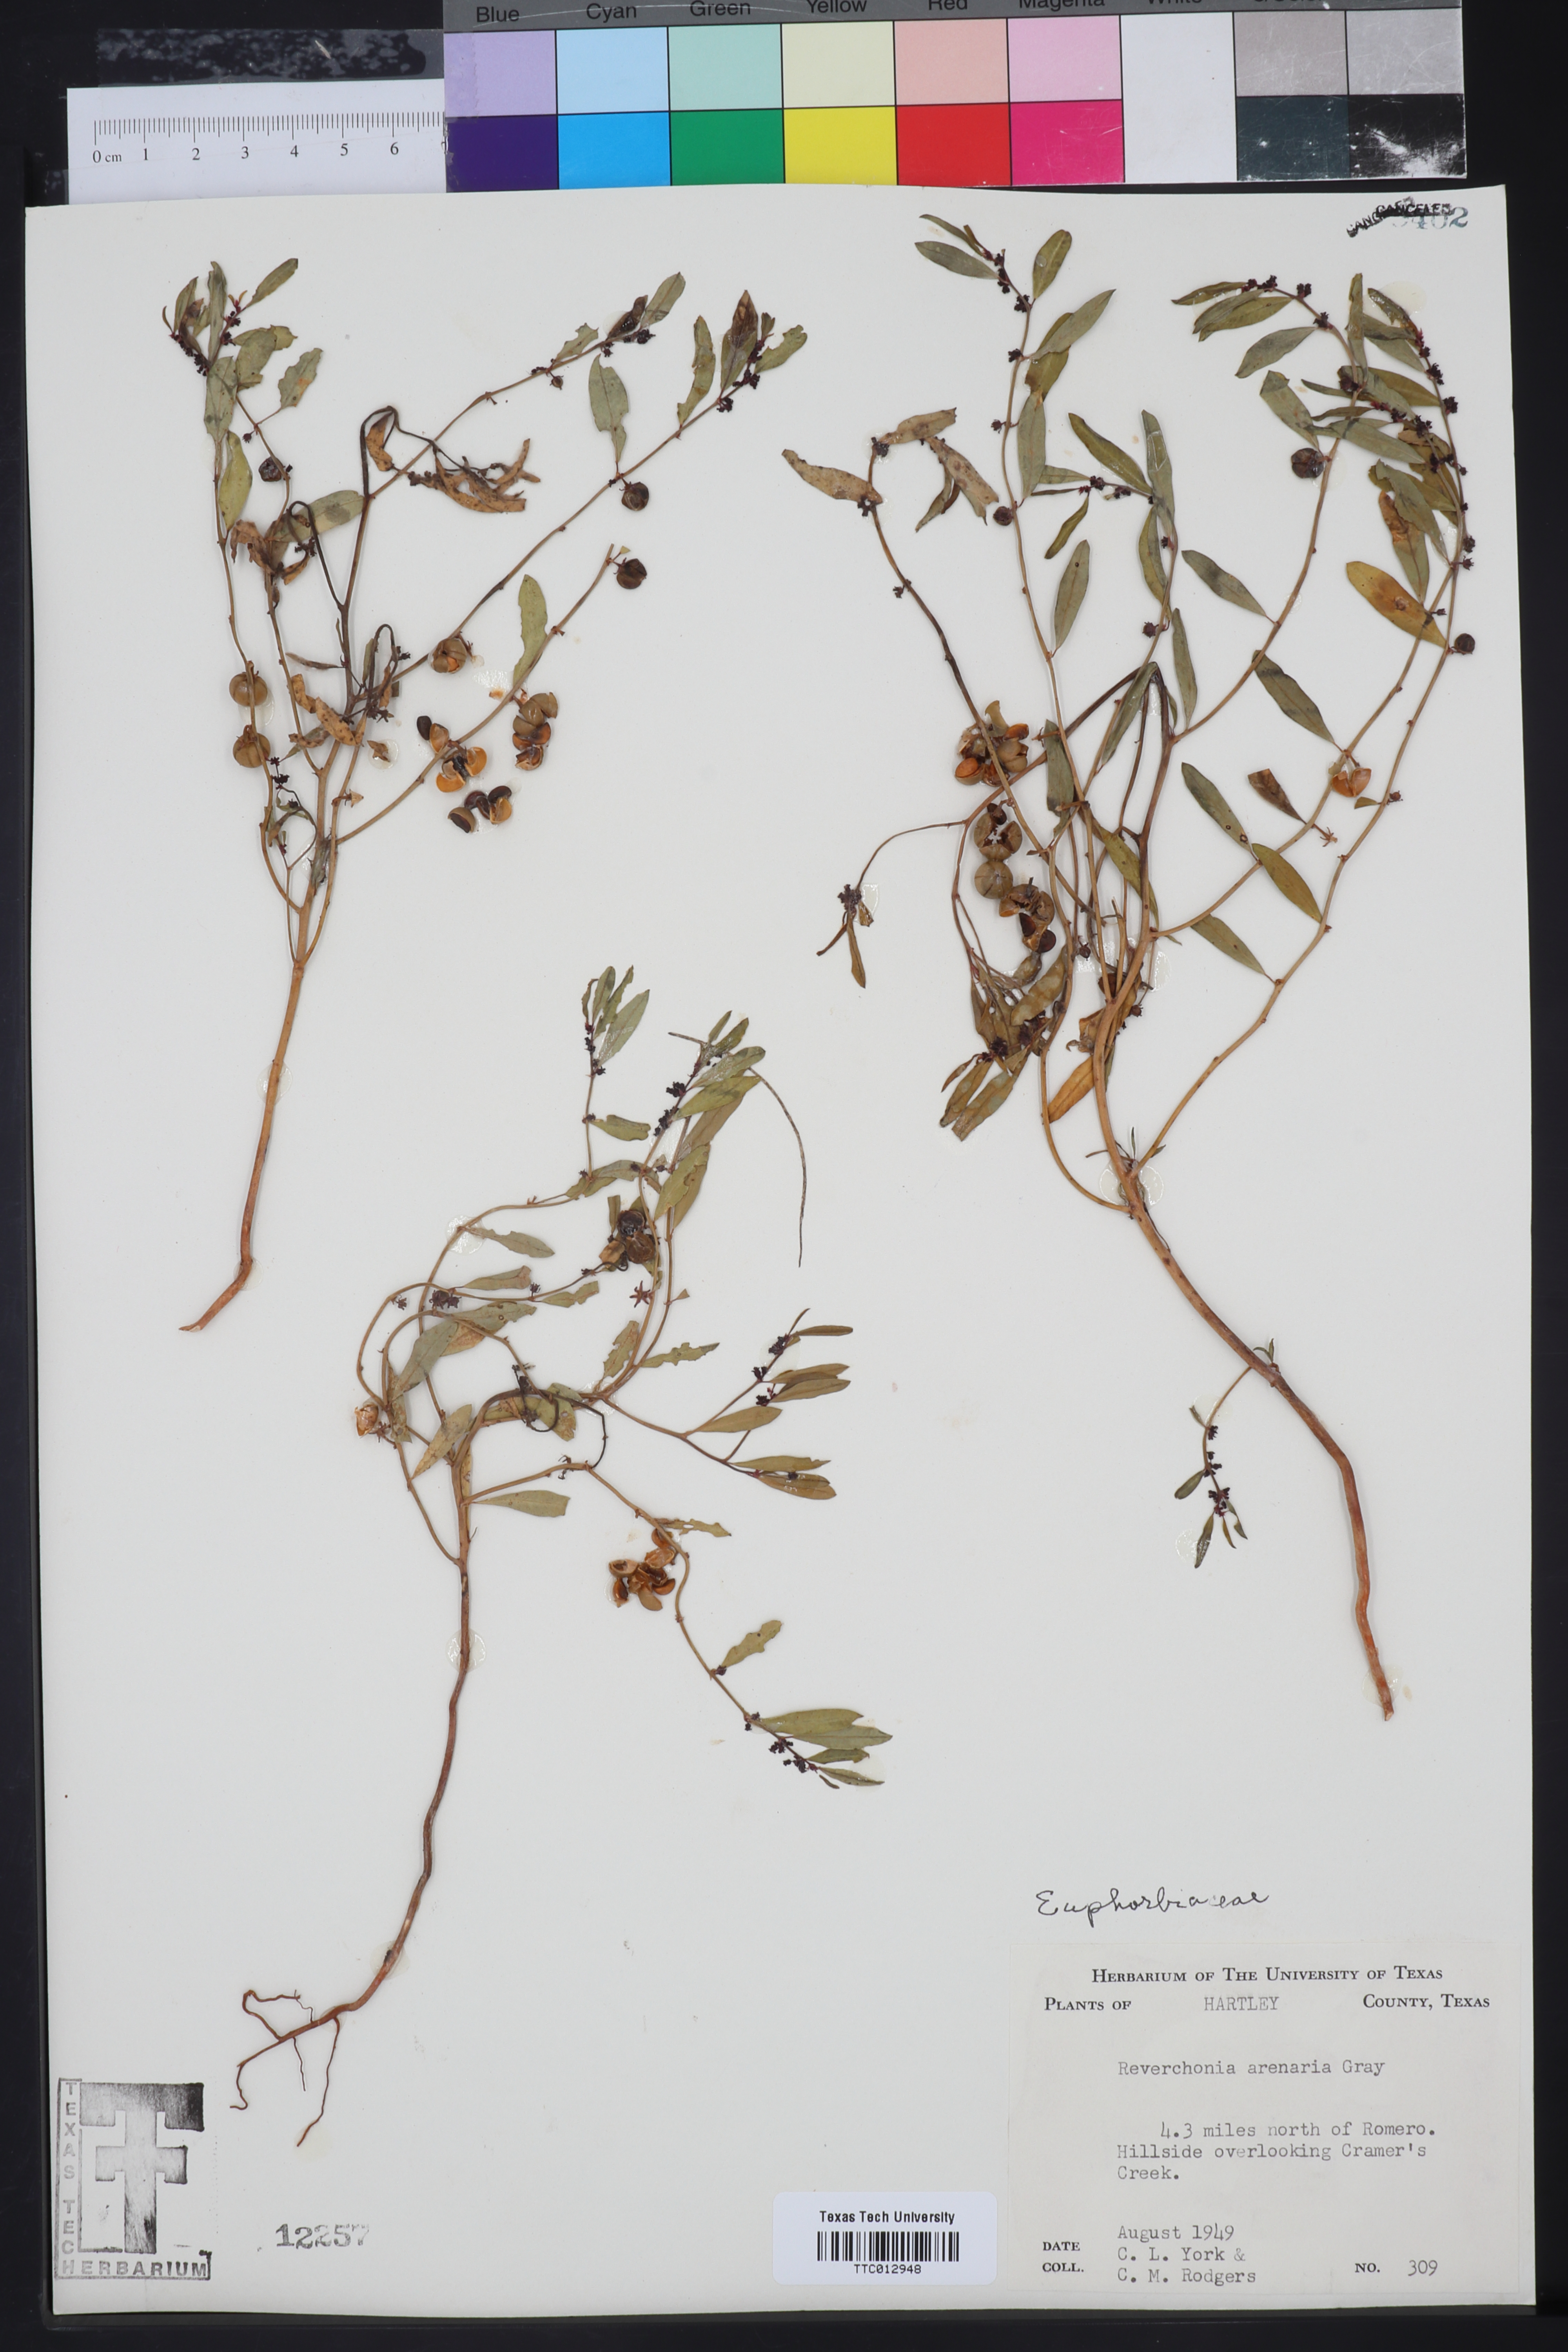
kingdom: Plantae
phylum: Tracheophyta
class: Magnoliopsida
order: Malpighiales
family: Phyllanthaceae
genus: Phyllanthus
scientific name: Phyllanthus warnockii
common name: Sand reverchonia
